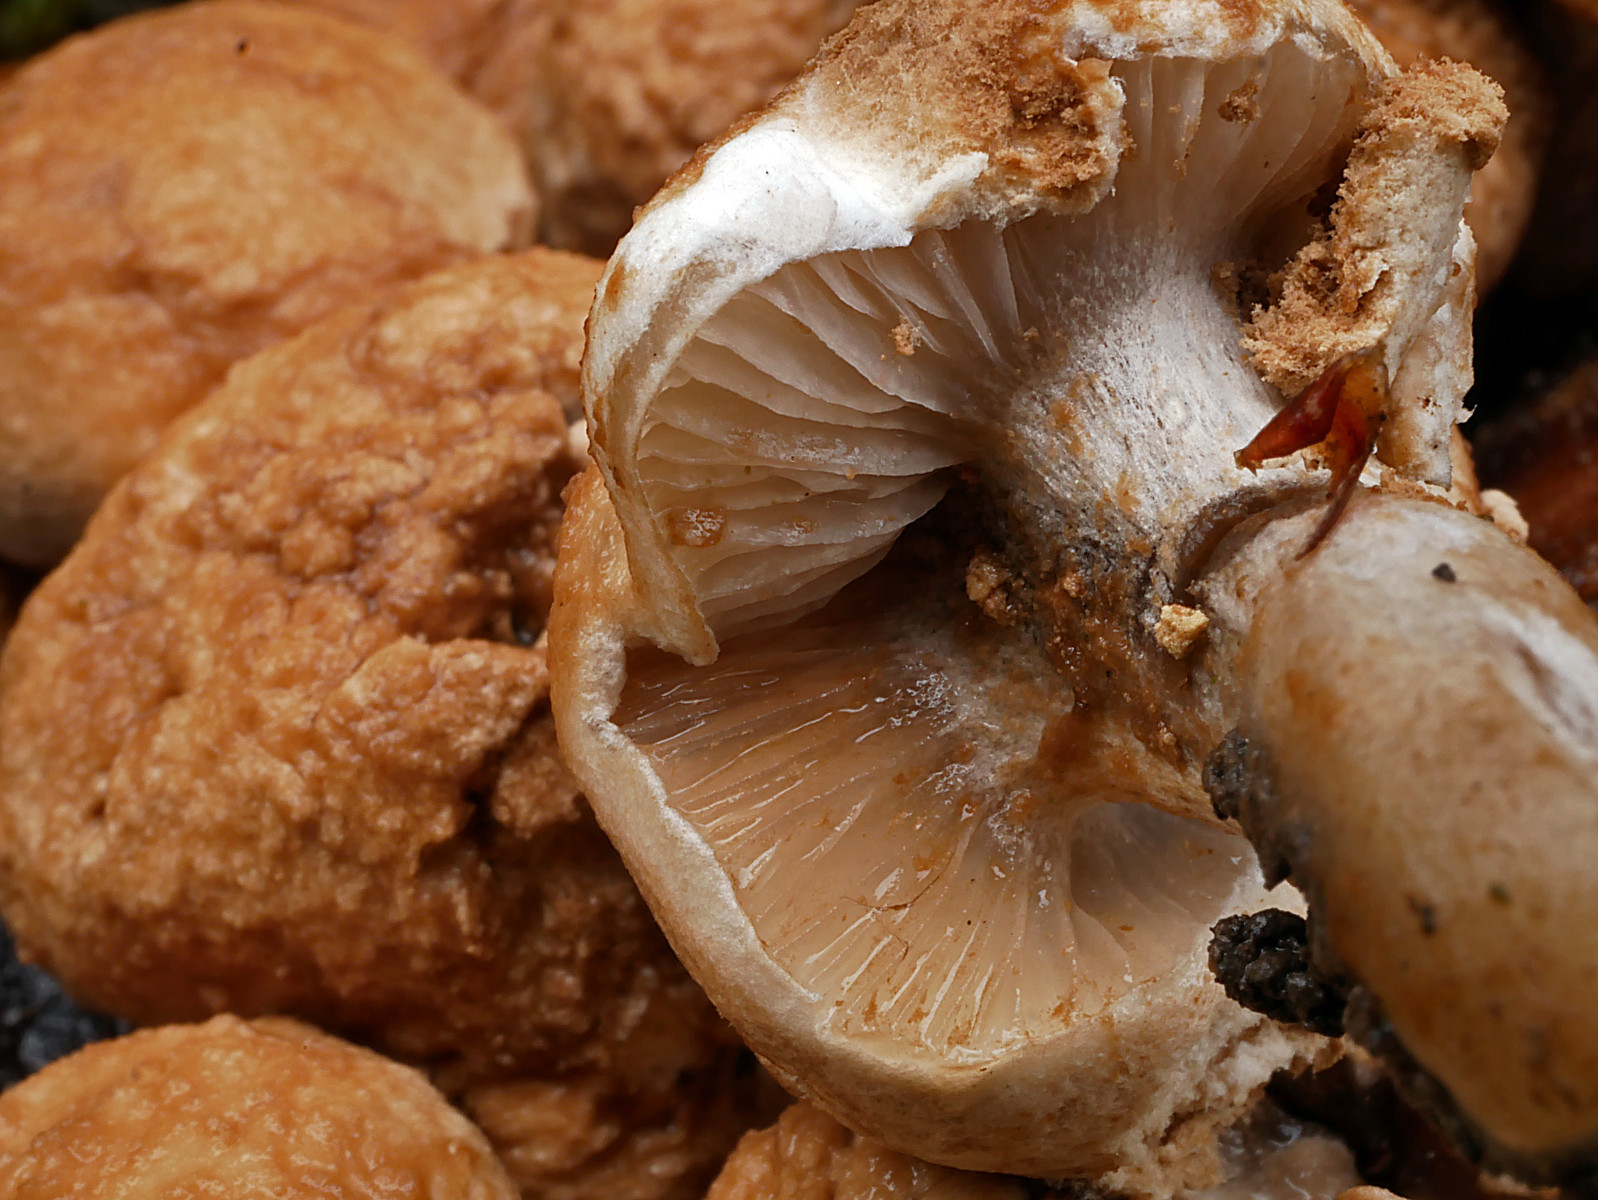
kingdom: Fungi
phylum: Basidiomycota
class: Agaricomycetes
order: Agaricales
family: Lyophyllaceae
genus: Asterophora
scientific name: Asterophora lycoperdoides
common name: brunpudret snyltehat
